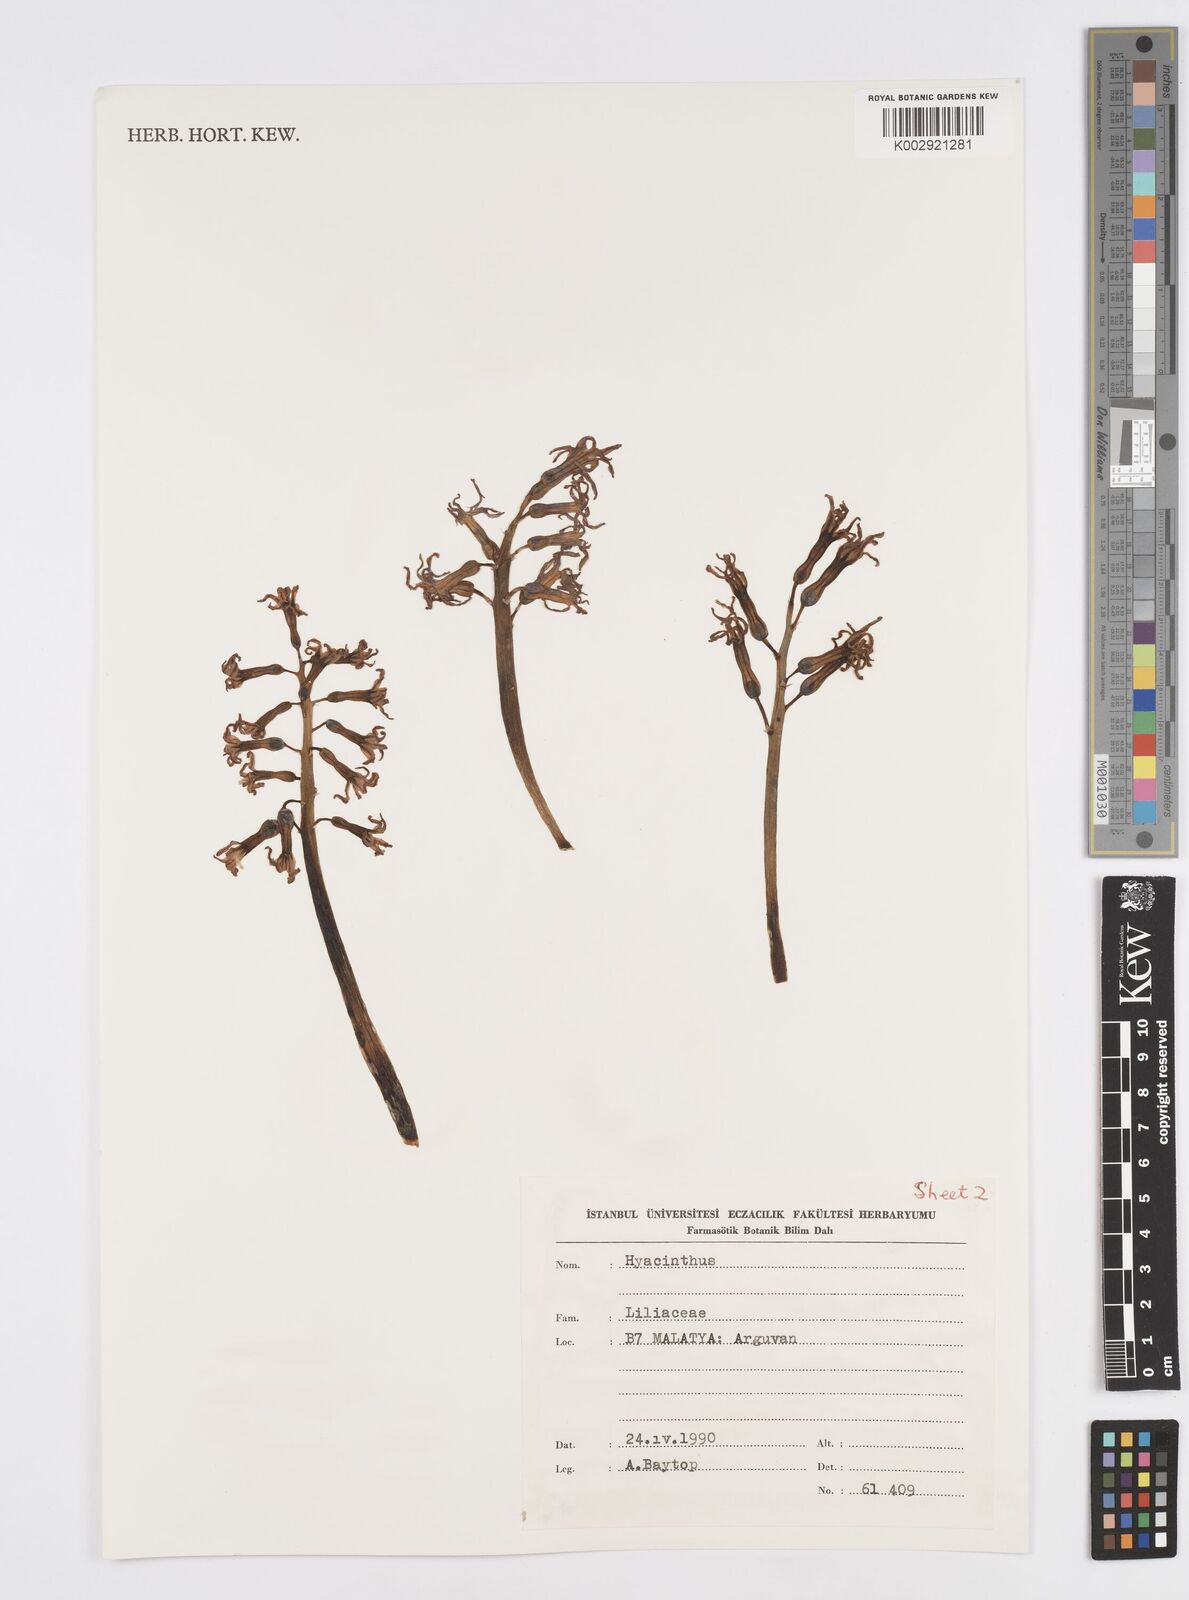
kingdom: Plantae
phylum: Tracheophyta
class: Liliopsida
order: Asparagales
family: Asparagaceae
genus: Hyacinthus
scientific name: Hyacinthus
